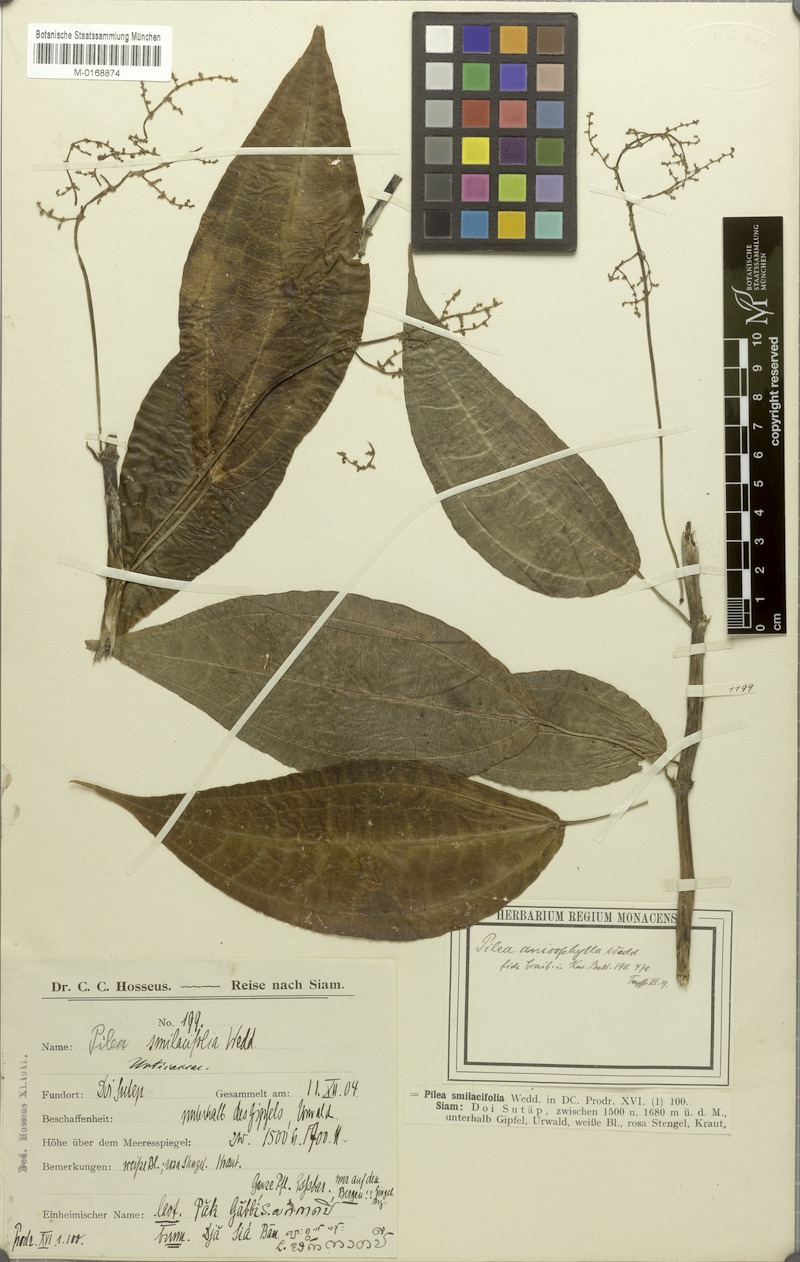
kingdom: Plantae
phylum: Tracheophyta
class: Magnoliopsida
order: Rosales
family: Urticaceae
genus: Pilea
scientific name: Pilea anisophylla
